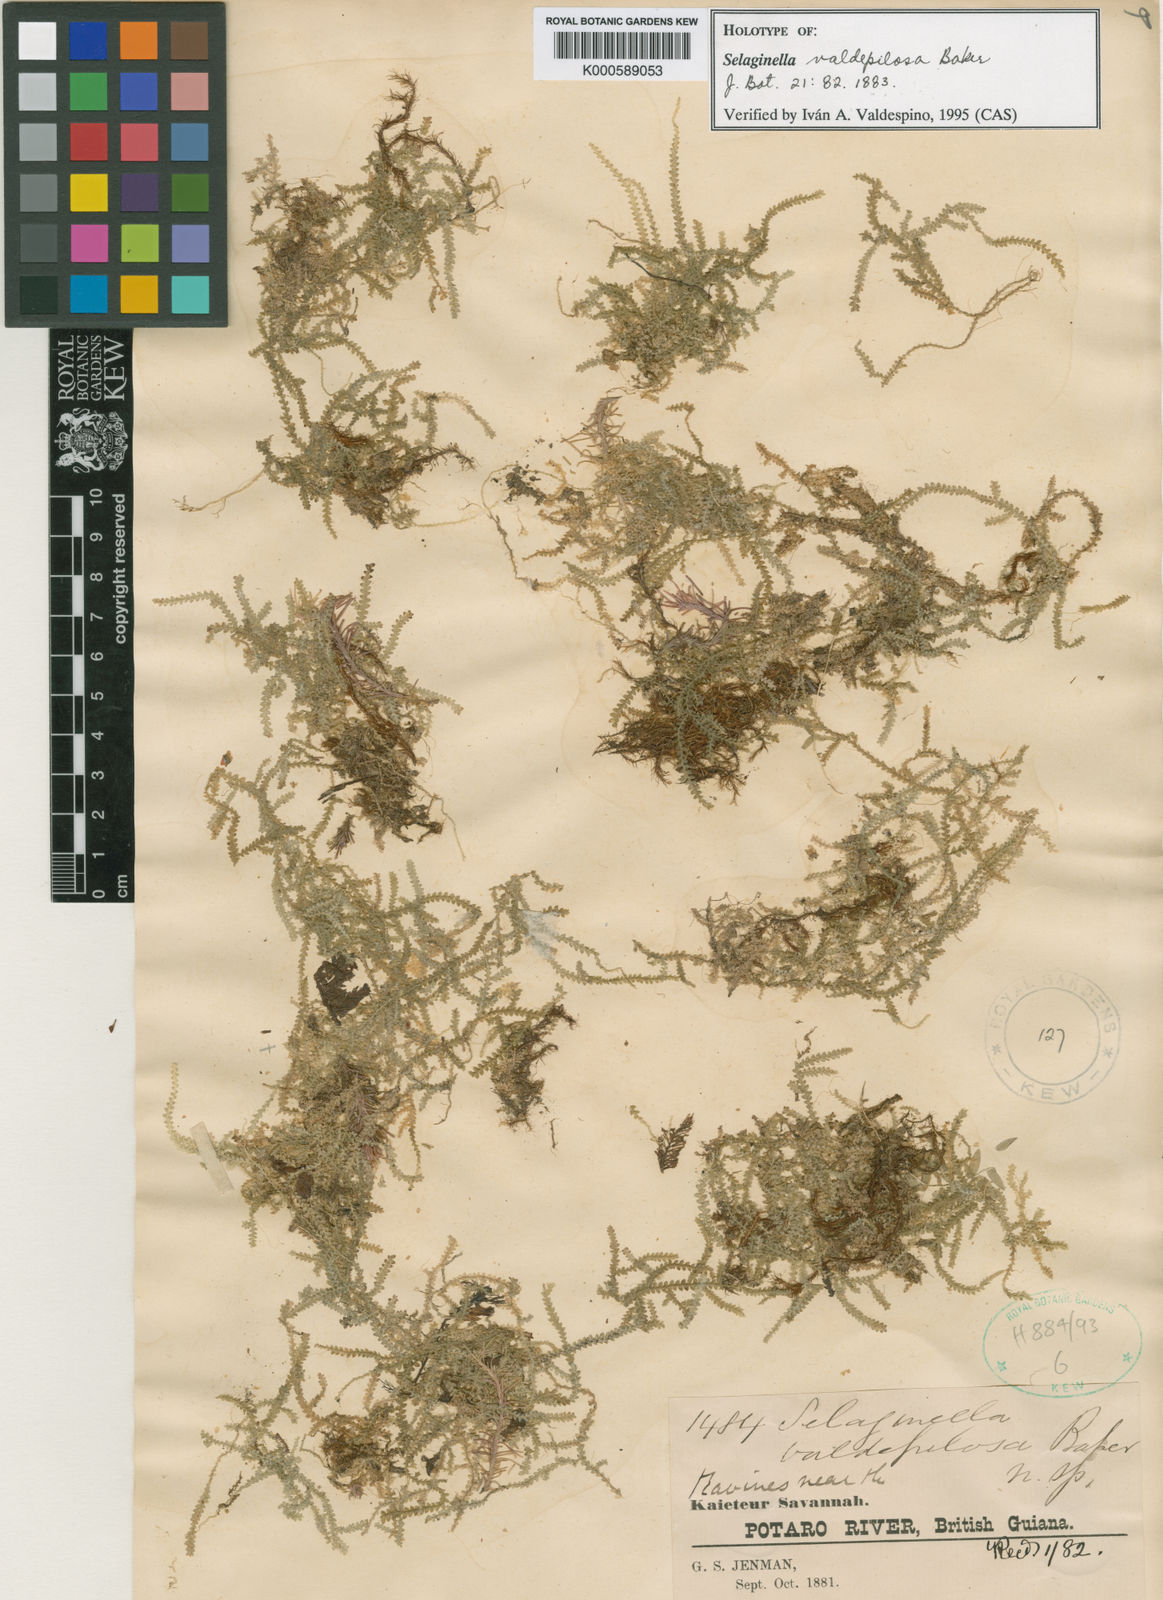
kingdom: Plantae
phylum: Tracheophyta
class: Lycopodiopsida
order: Selaginellales
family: Selaginellaceae
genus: Selaginella
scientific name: Selaginella valdepilosa
